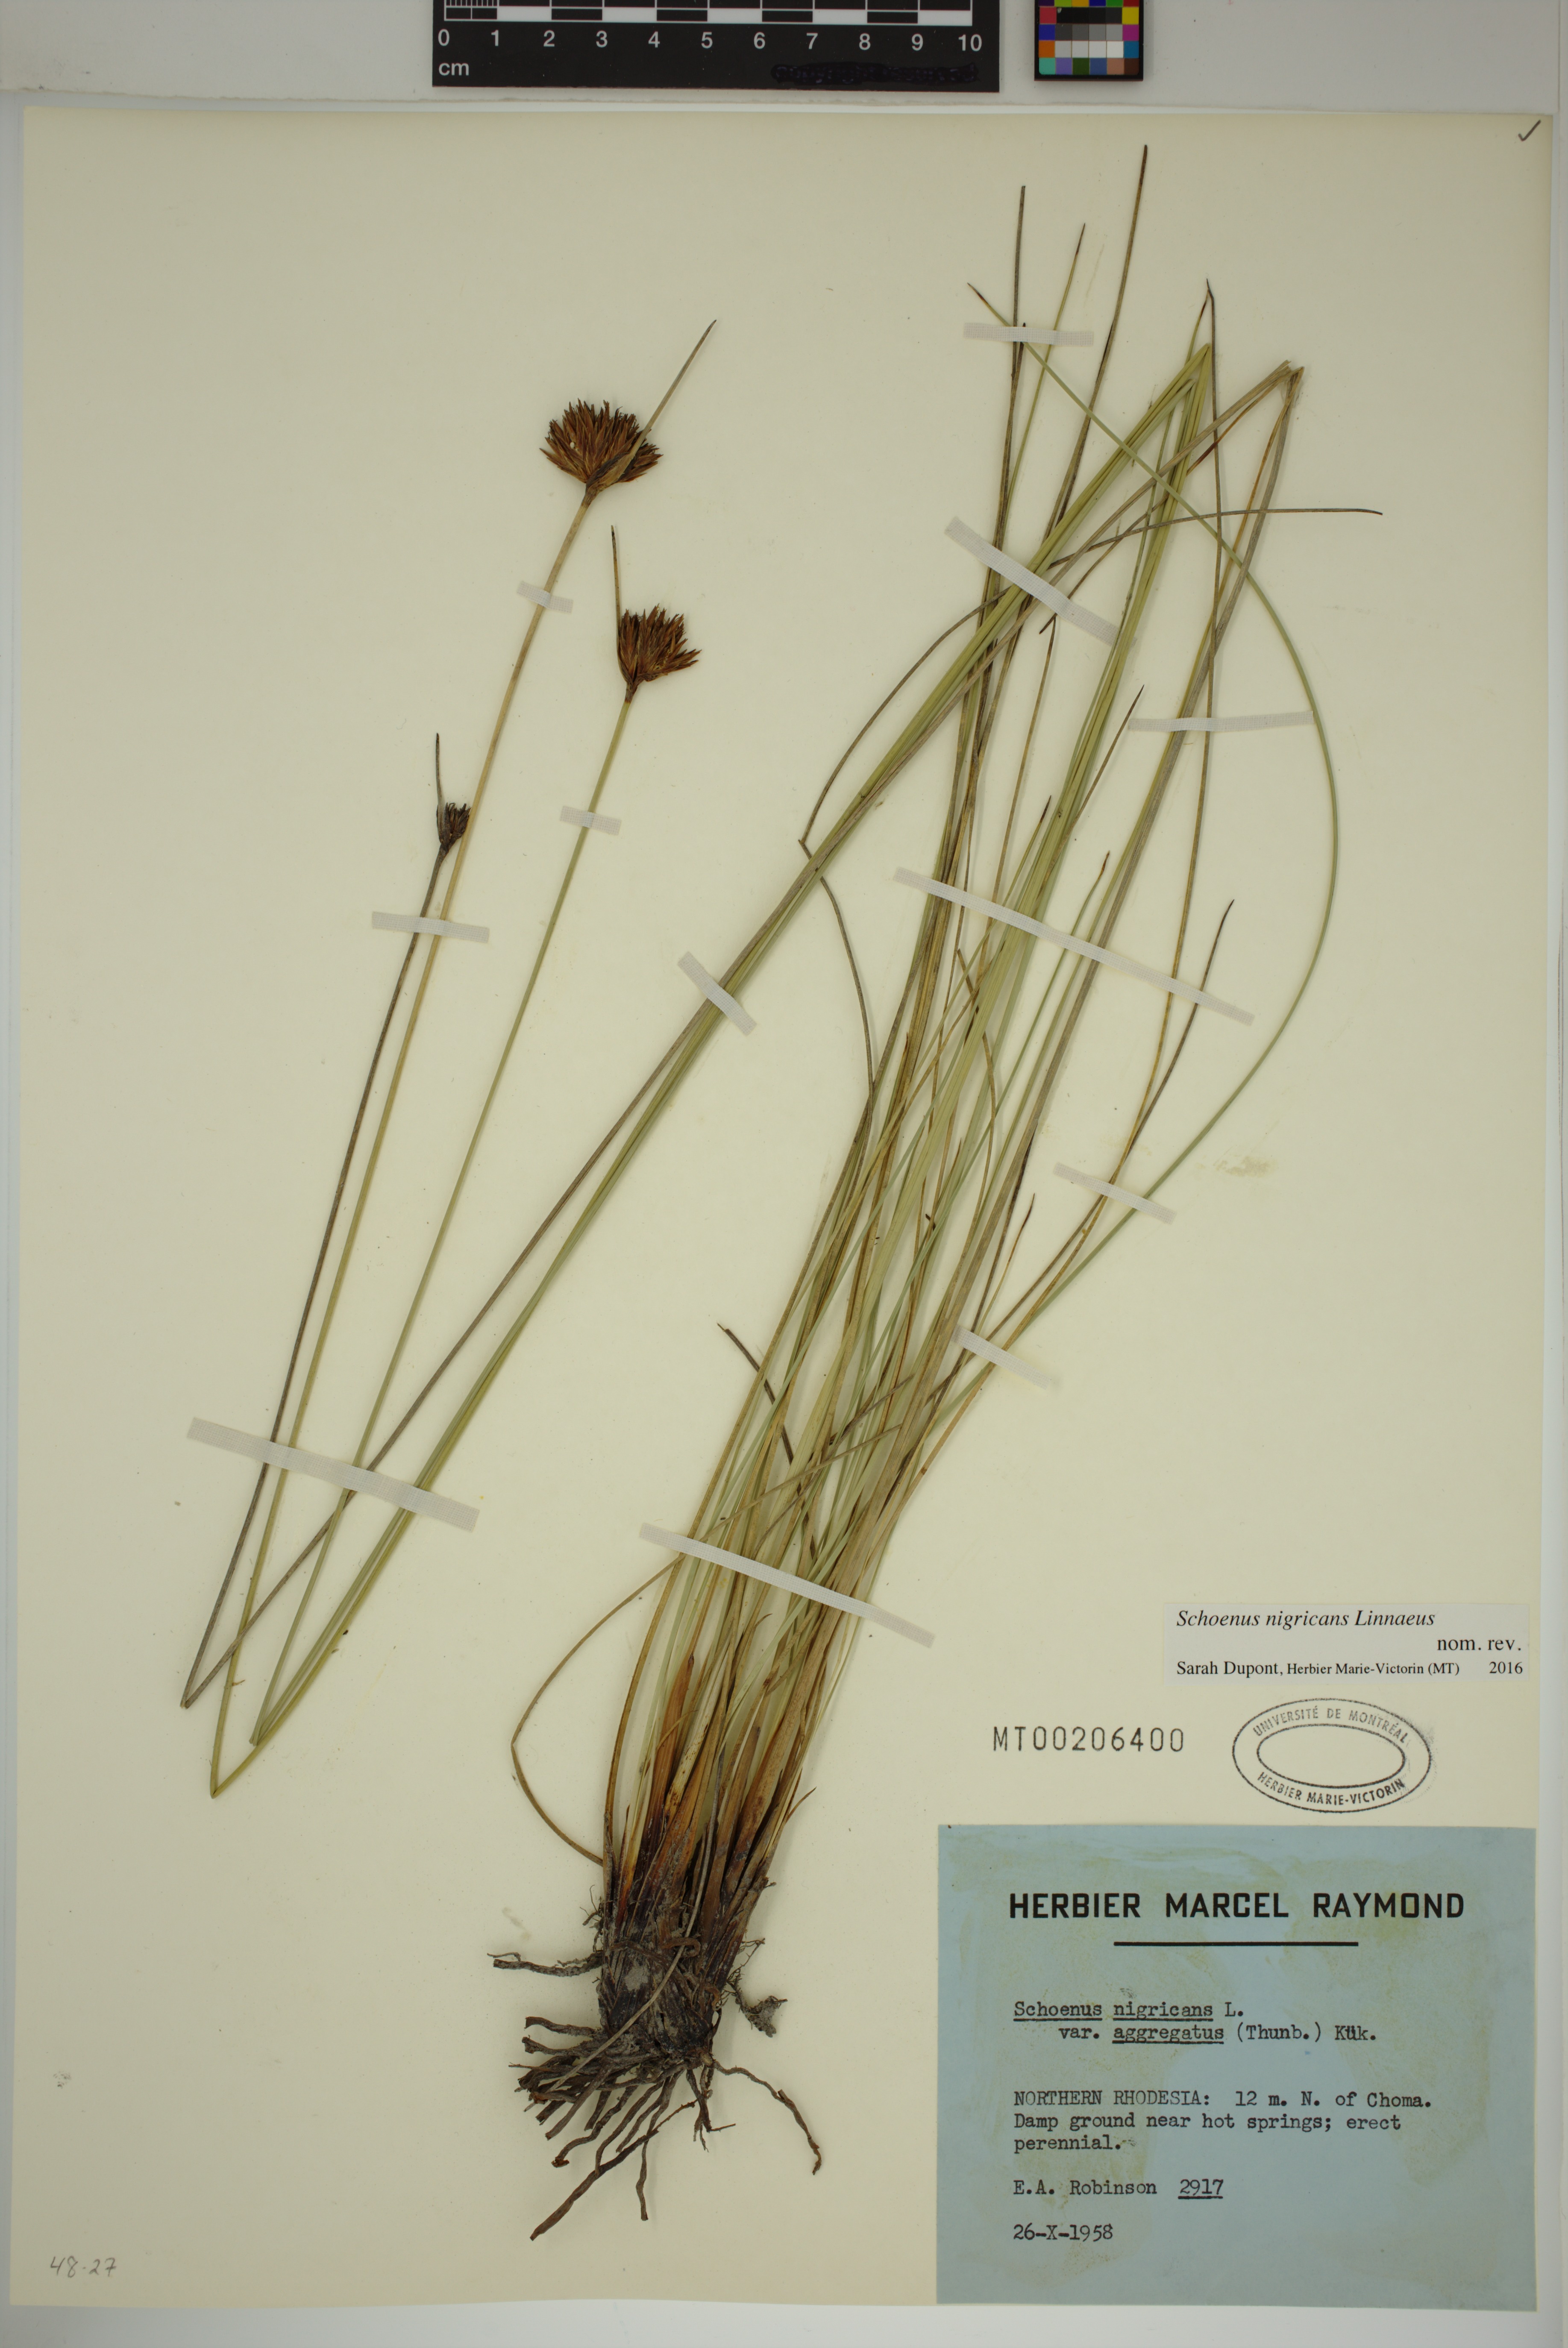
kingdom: Plantae
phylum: Tracheophyta
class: Liliopsida
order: Poales
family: Cyperaceae
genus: Schoenus
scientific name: Schoenus nigricans
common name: Black bog-rush
